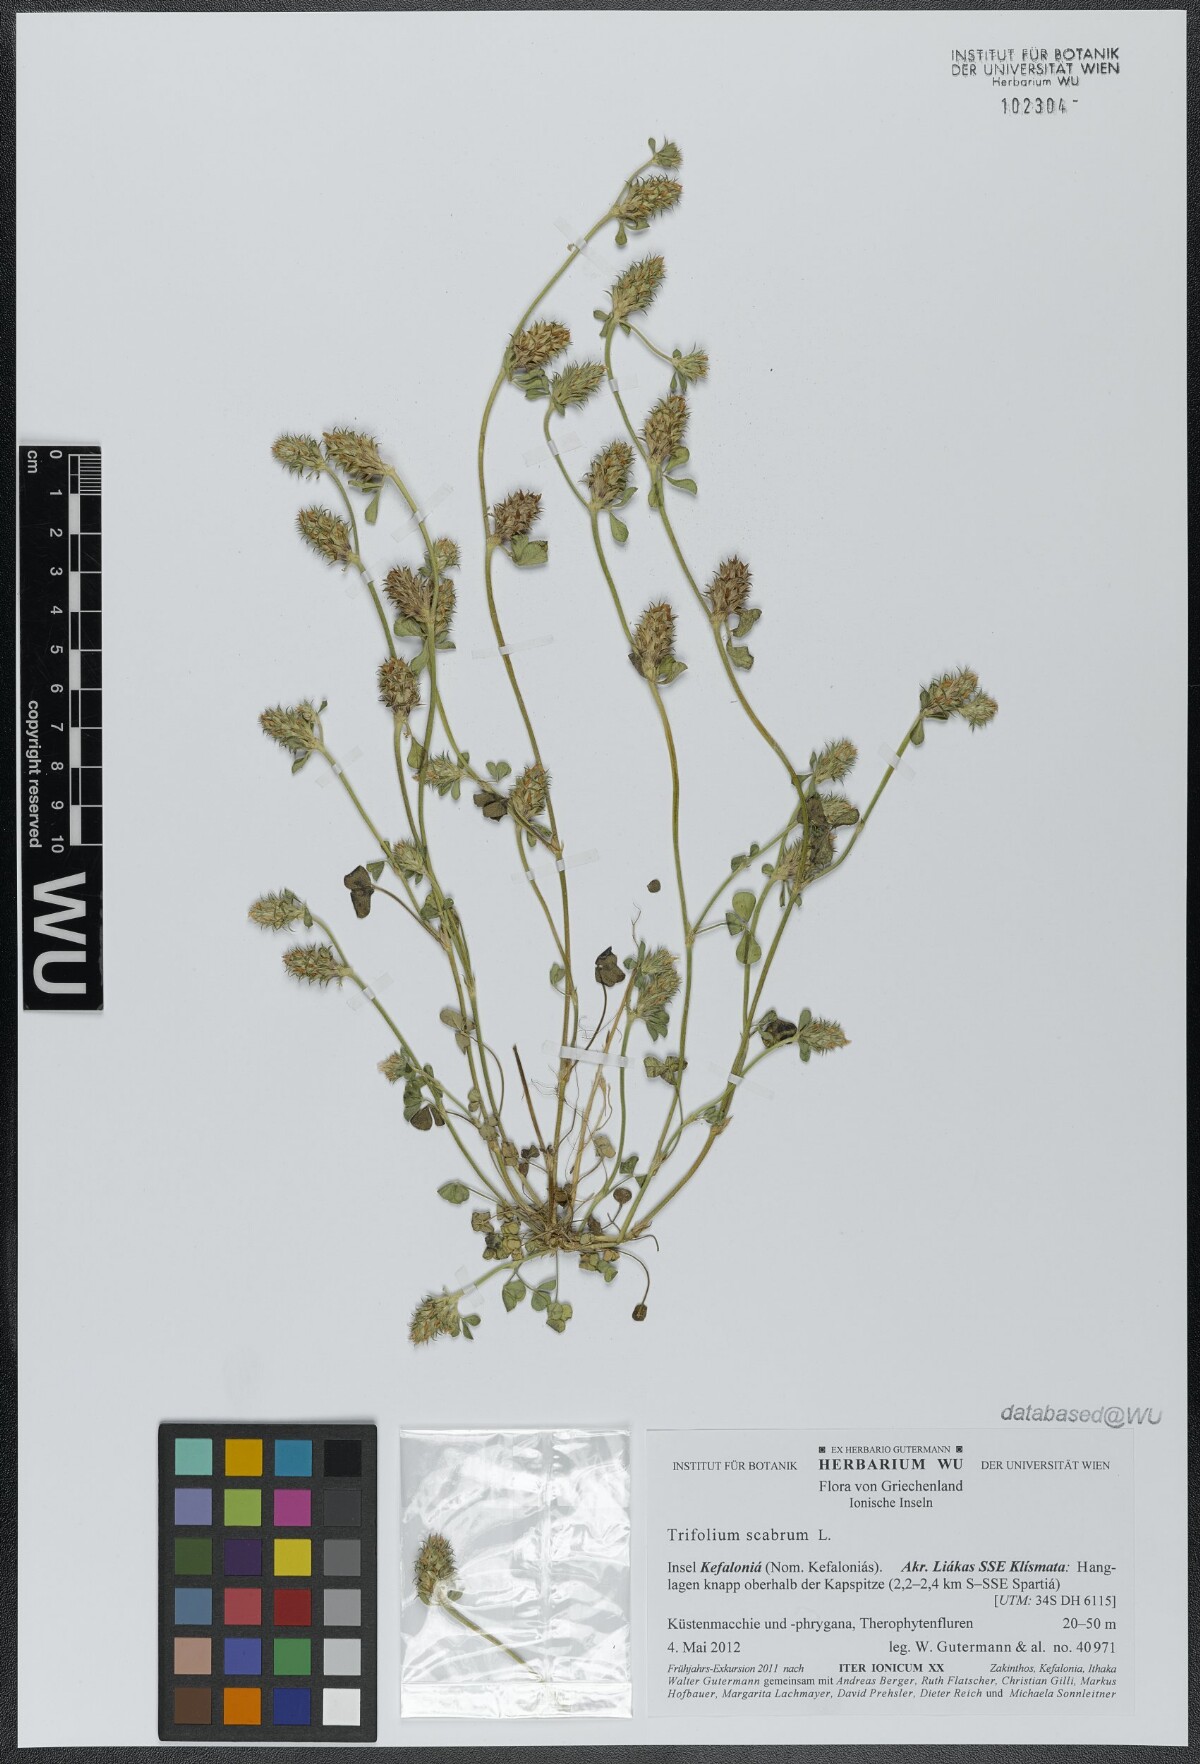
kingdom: Plantae
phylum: Tracheophyta
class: Magnoliopsida
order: Fabales
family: Fabaceae
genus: Trifolium
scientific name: Trifolium scabrum
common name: Rough clover
